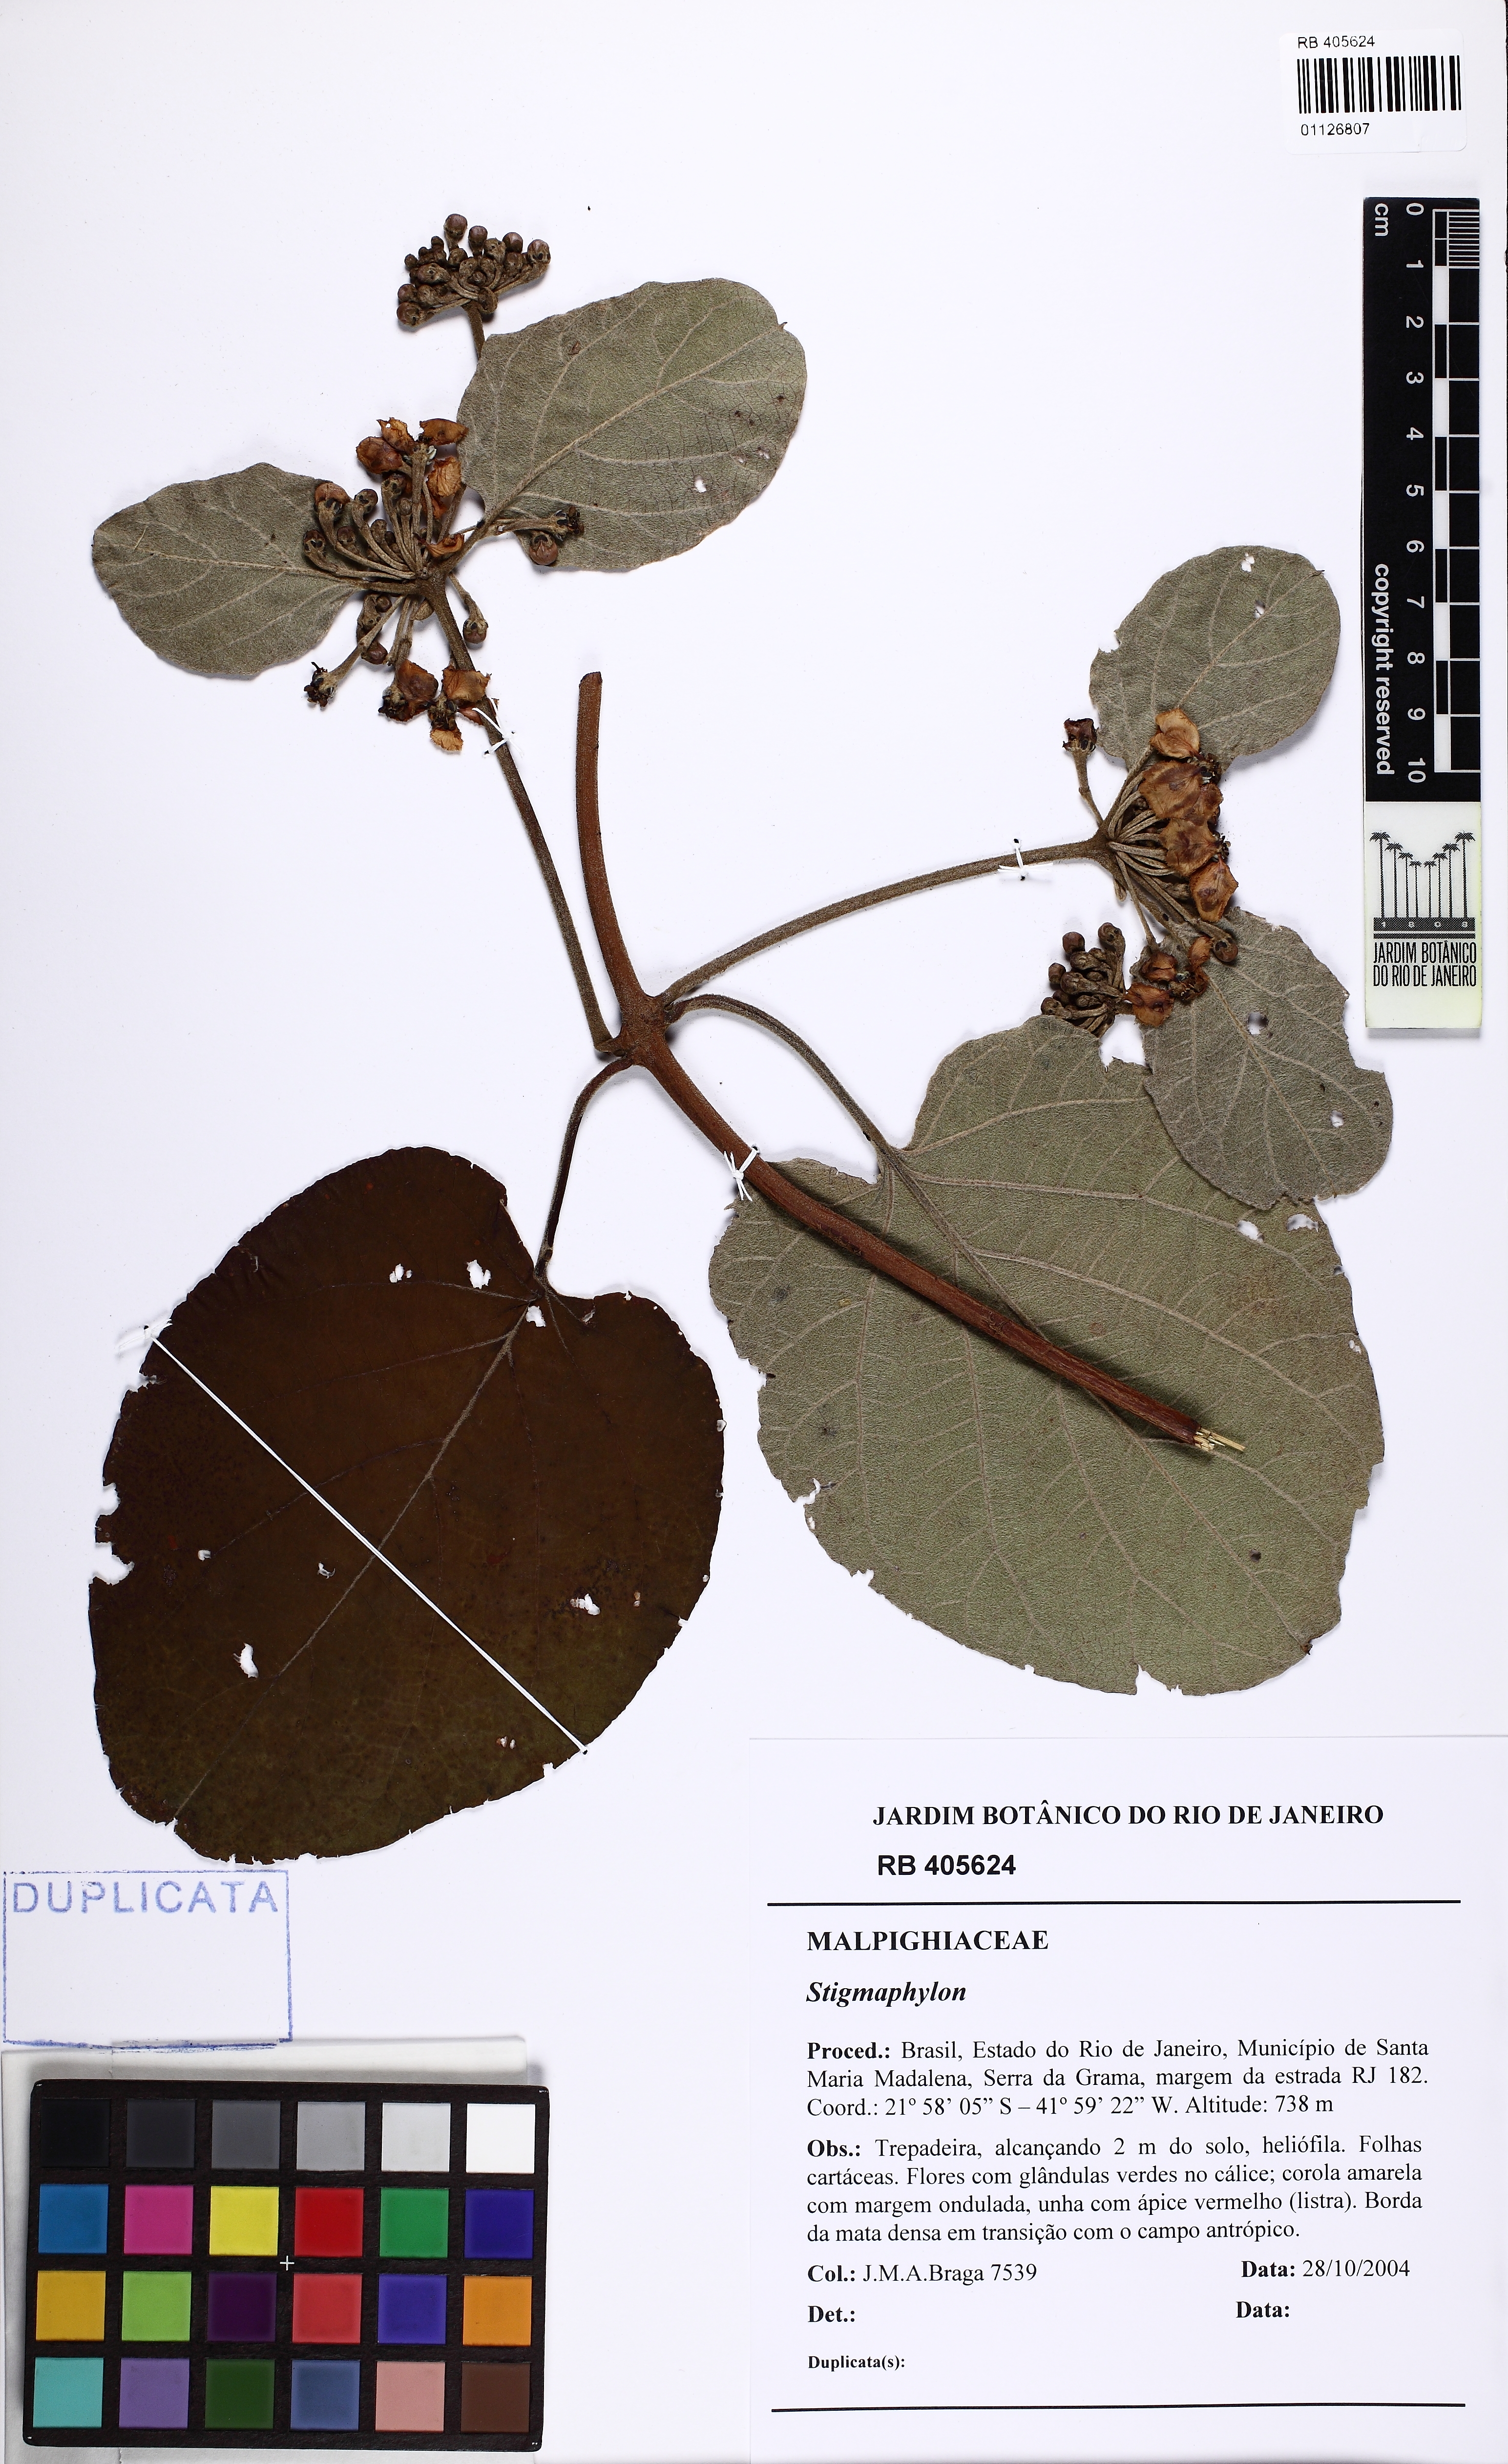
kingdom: Plantae
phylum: Tracheophyta
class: Magnoliopsida
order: Malpighiales
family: Malpighiaceae
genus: Stigmaphyllon
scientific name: Stigmaphyllon
